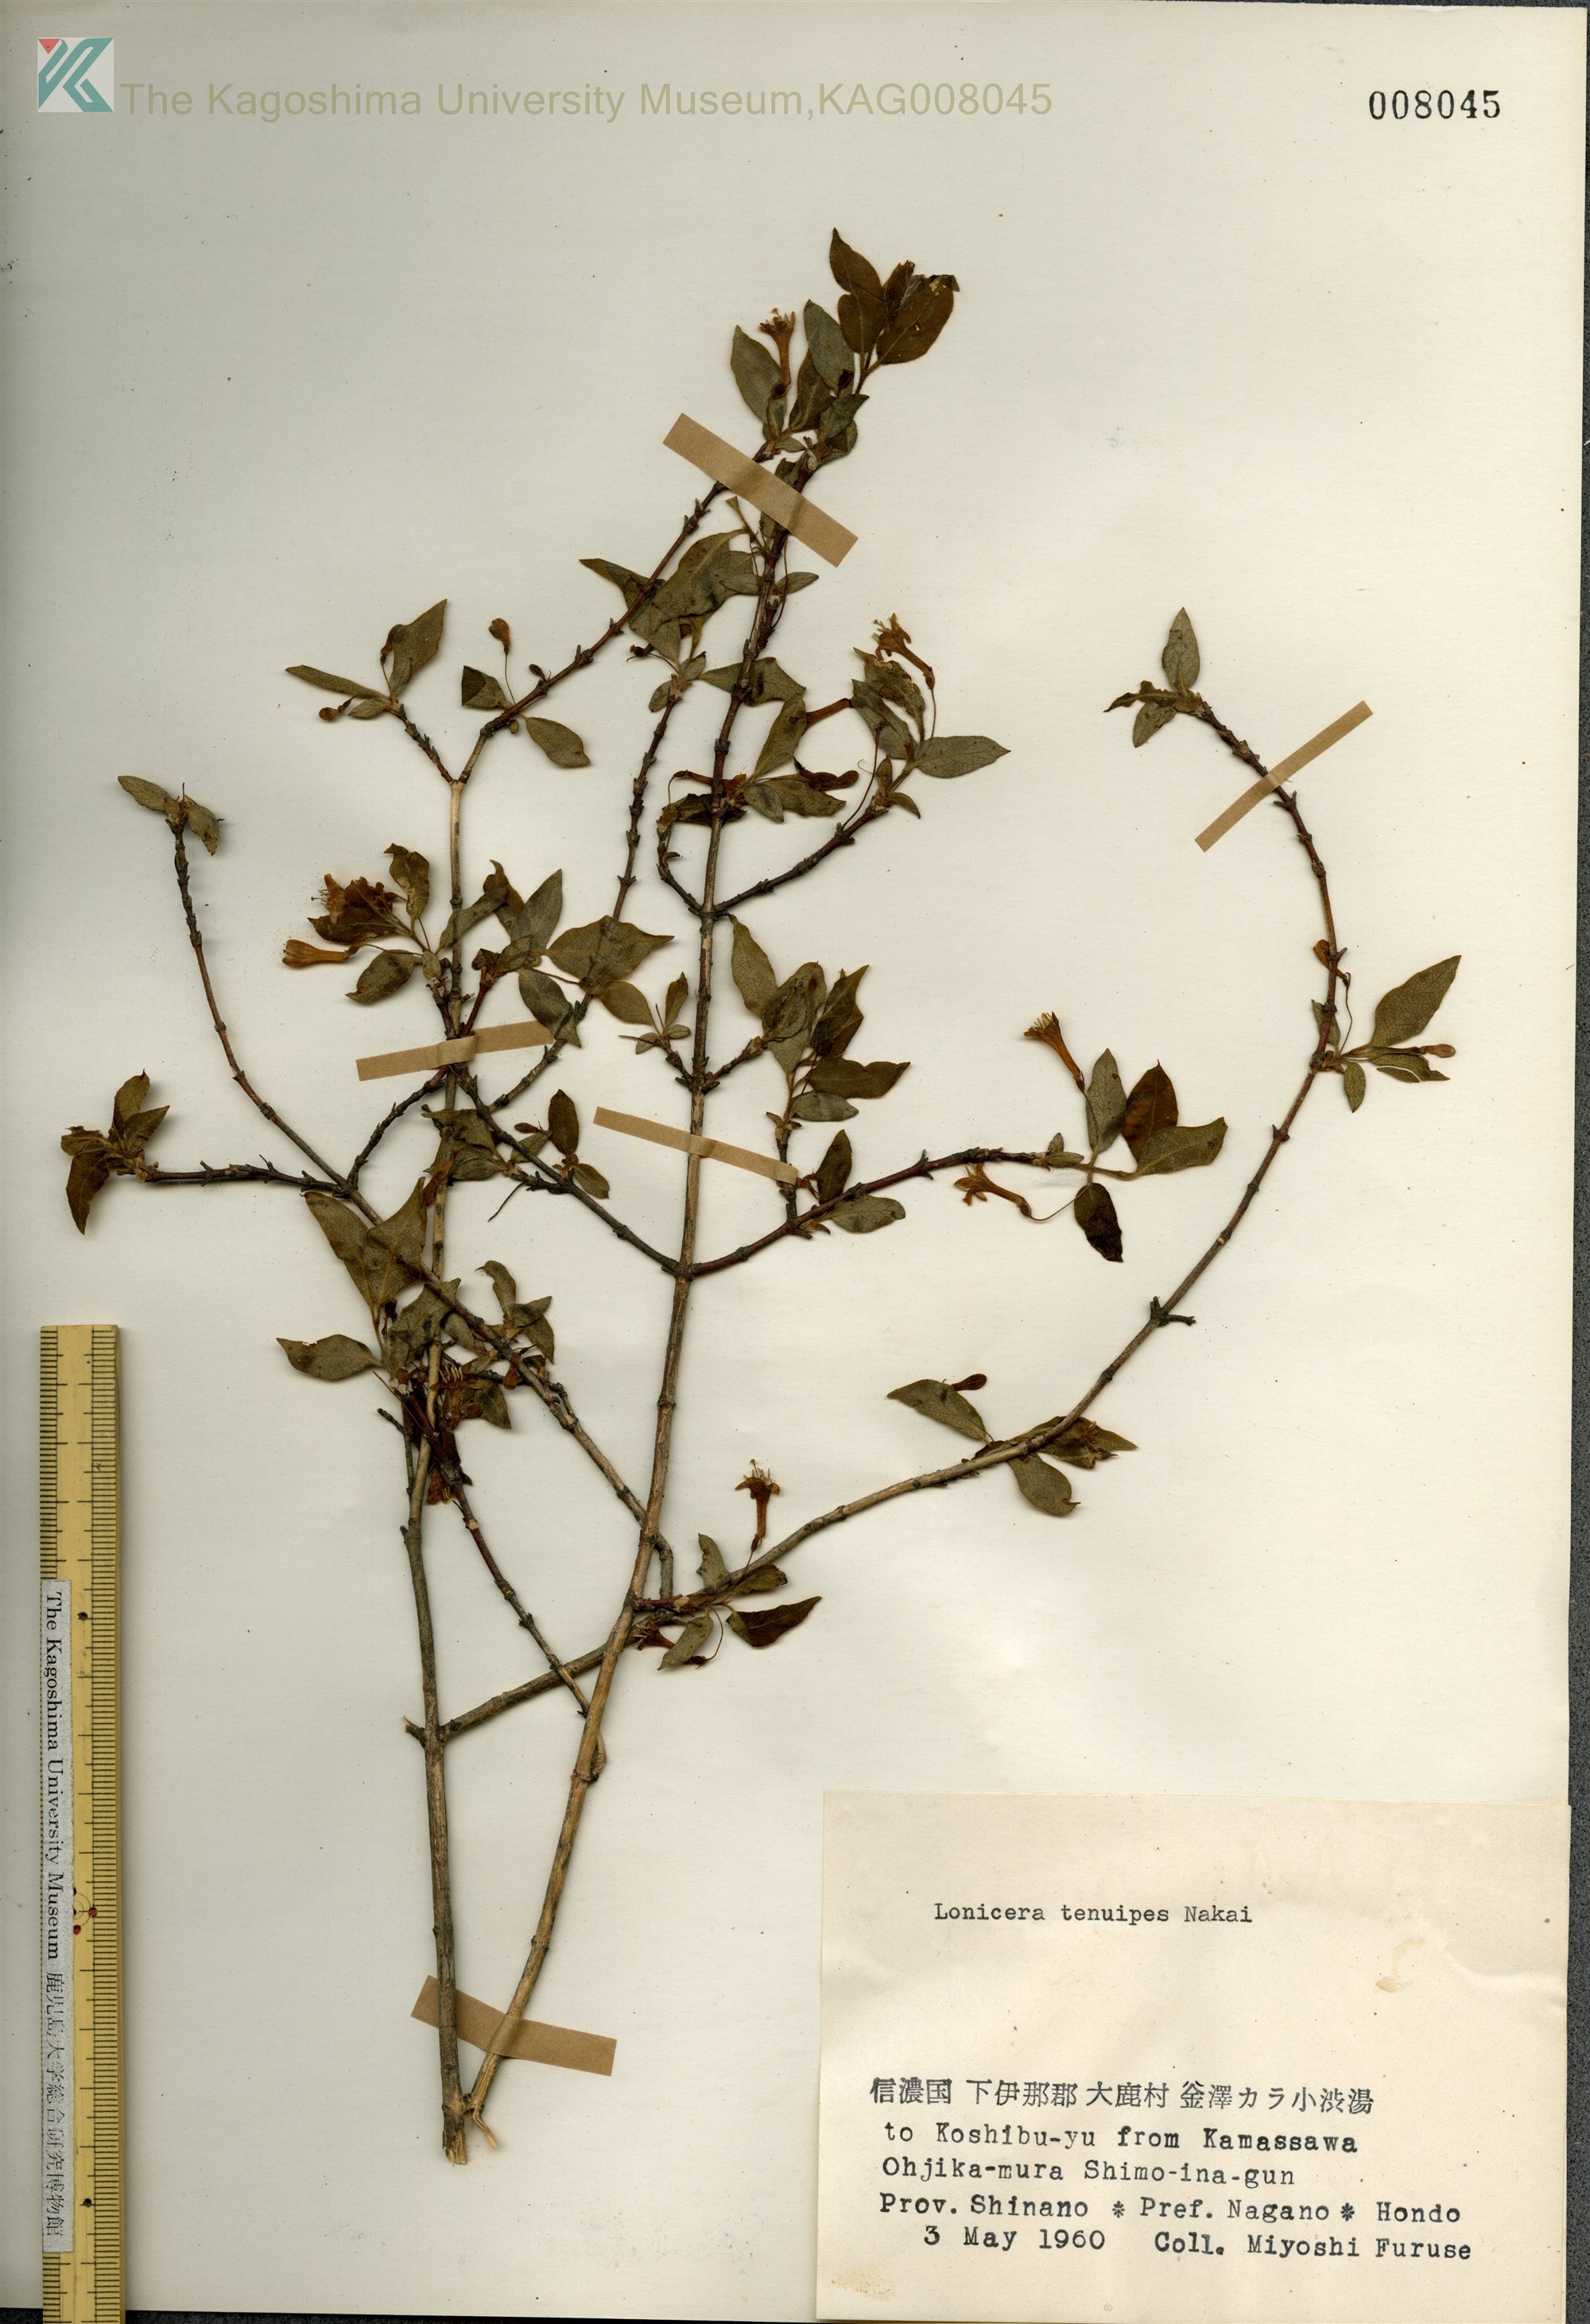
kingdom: Plantae
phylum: Tracheophyta
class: Magnoliopsida
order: Dipsacales
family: Caprifoliaceae
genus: Lonicera
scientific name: Lonicera gracilipes
